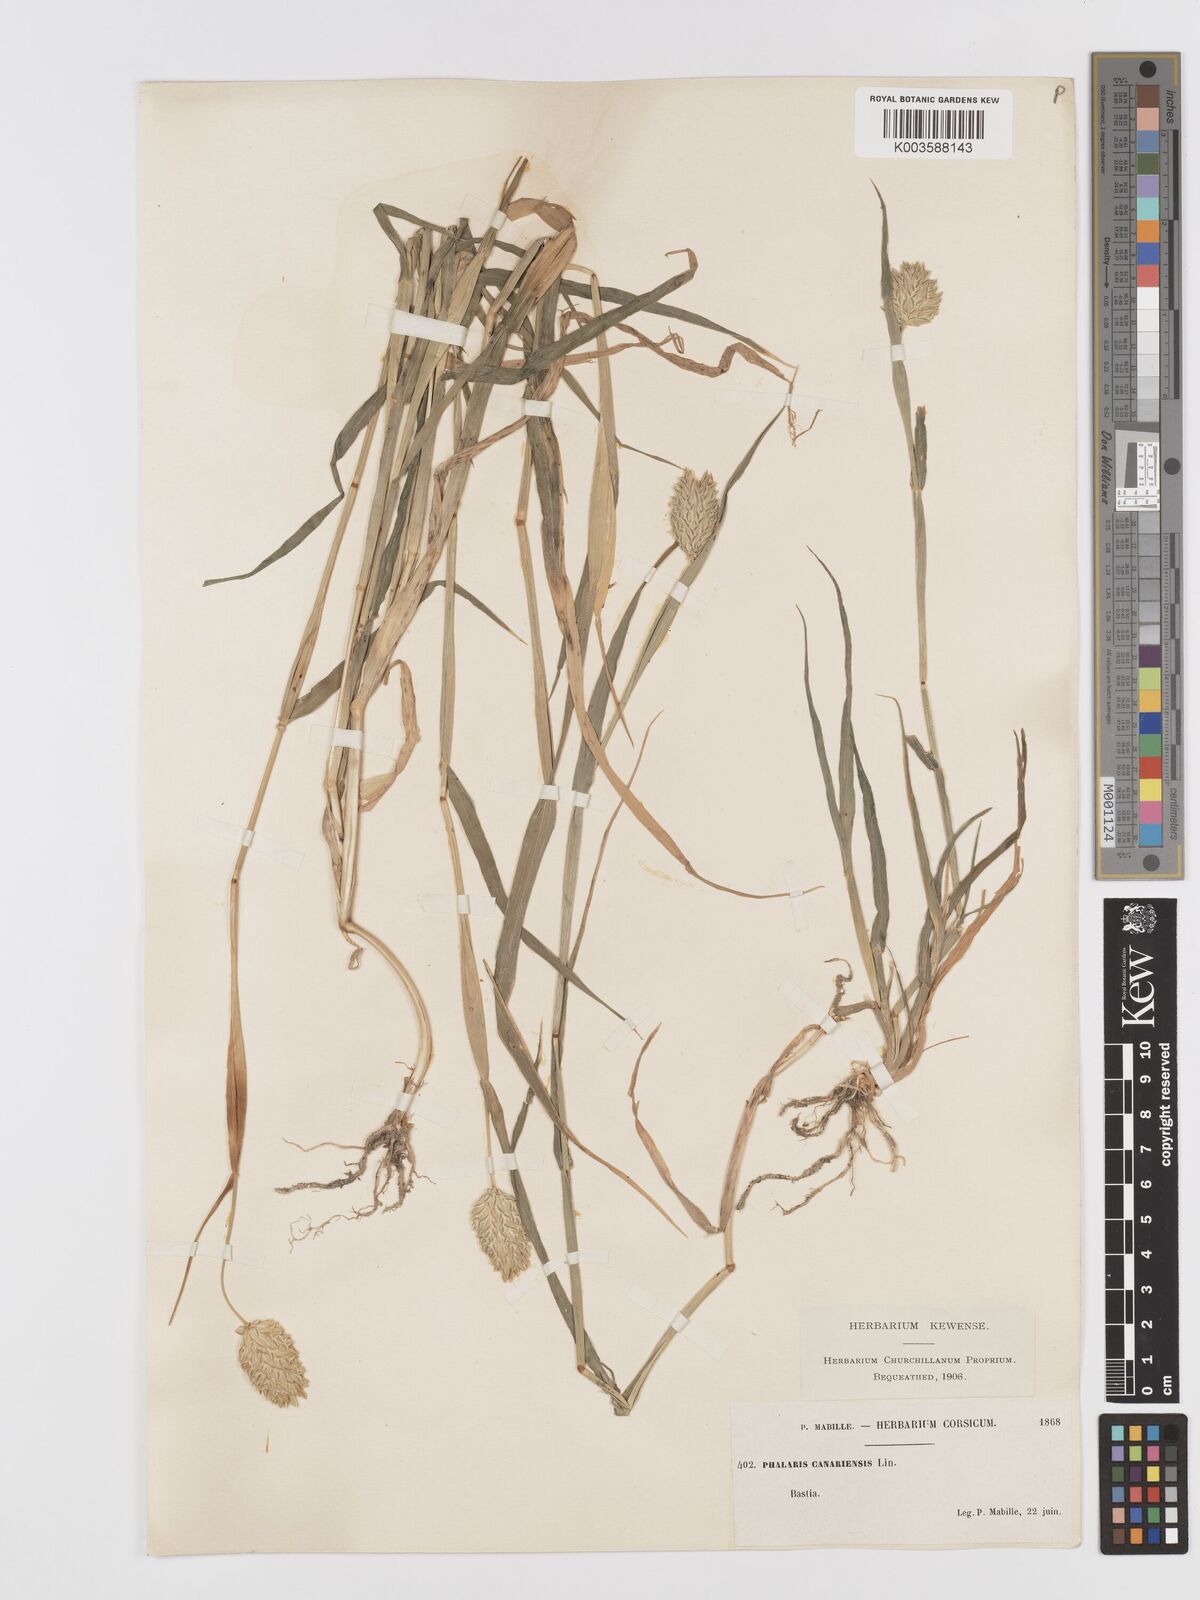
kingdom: Plantae
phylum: Tracheophyta
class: Liliopsida
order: Poales
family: Poaceae
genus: Phalaris
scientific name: Phalaris canariensis
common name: Annual canarygrass
